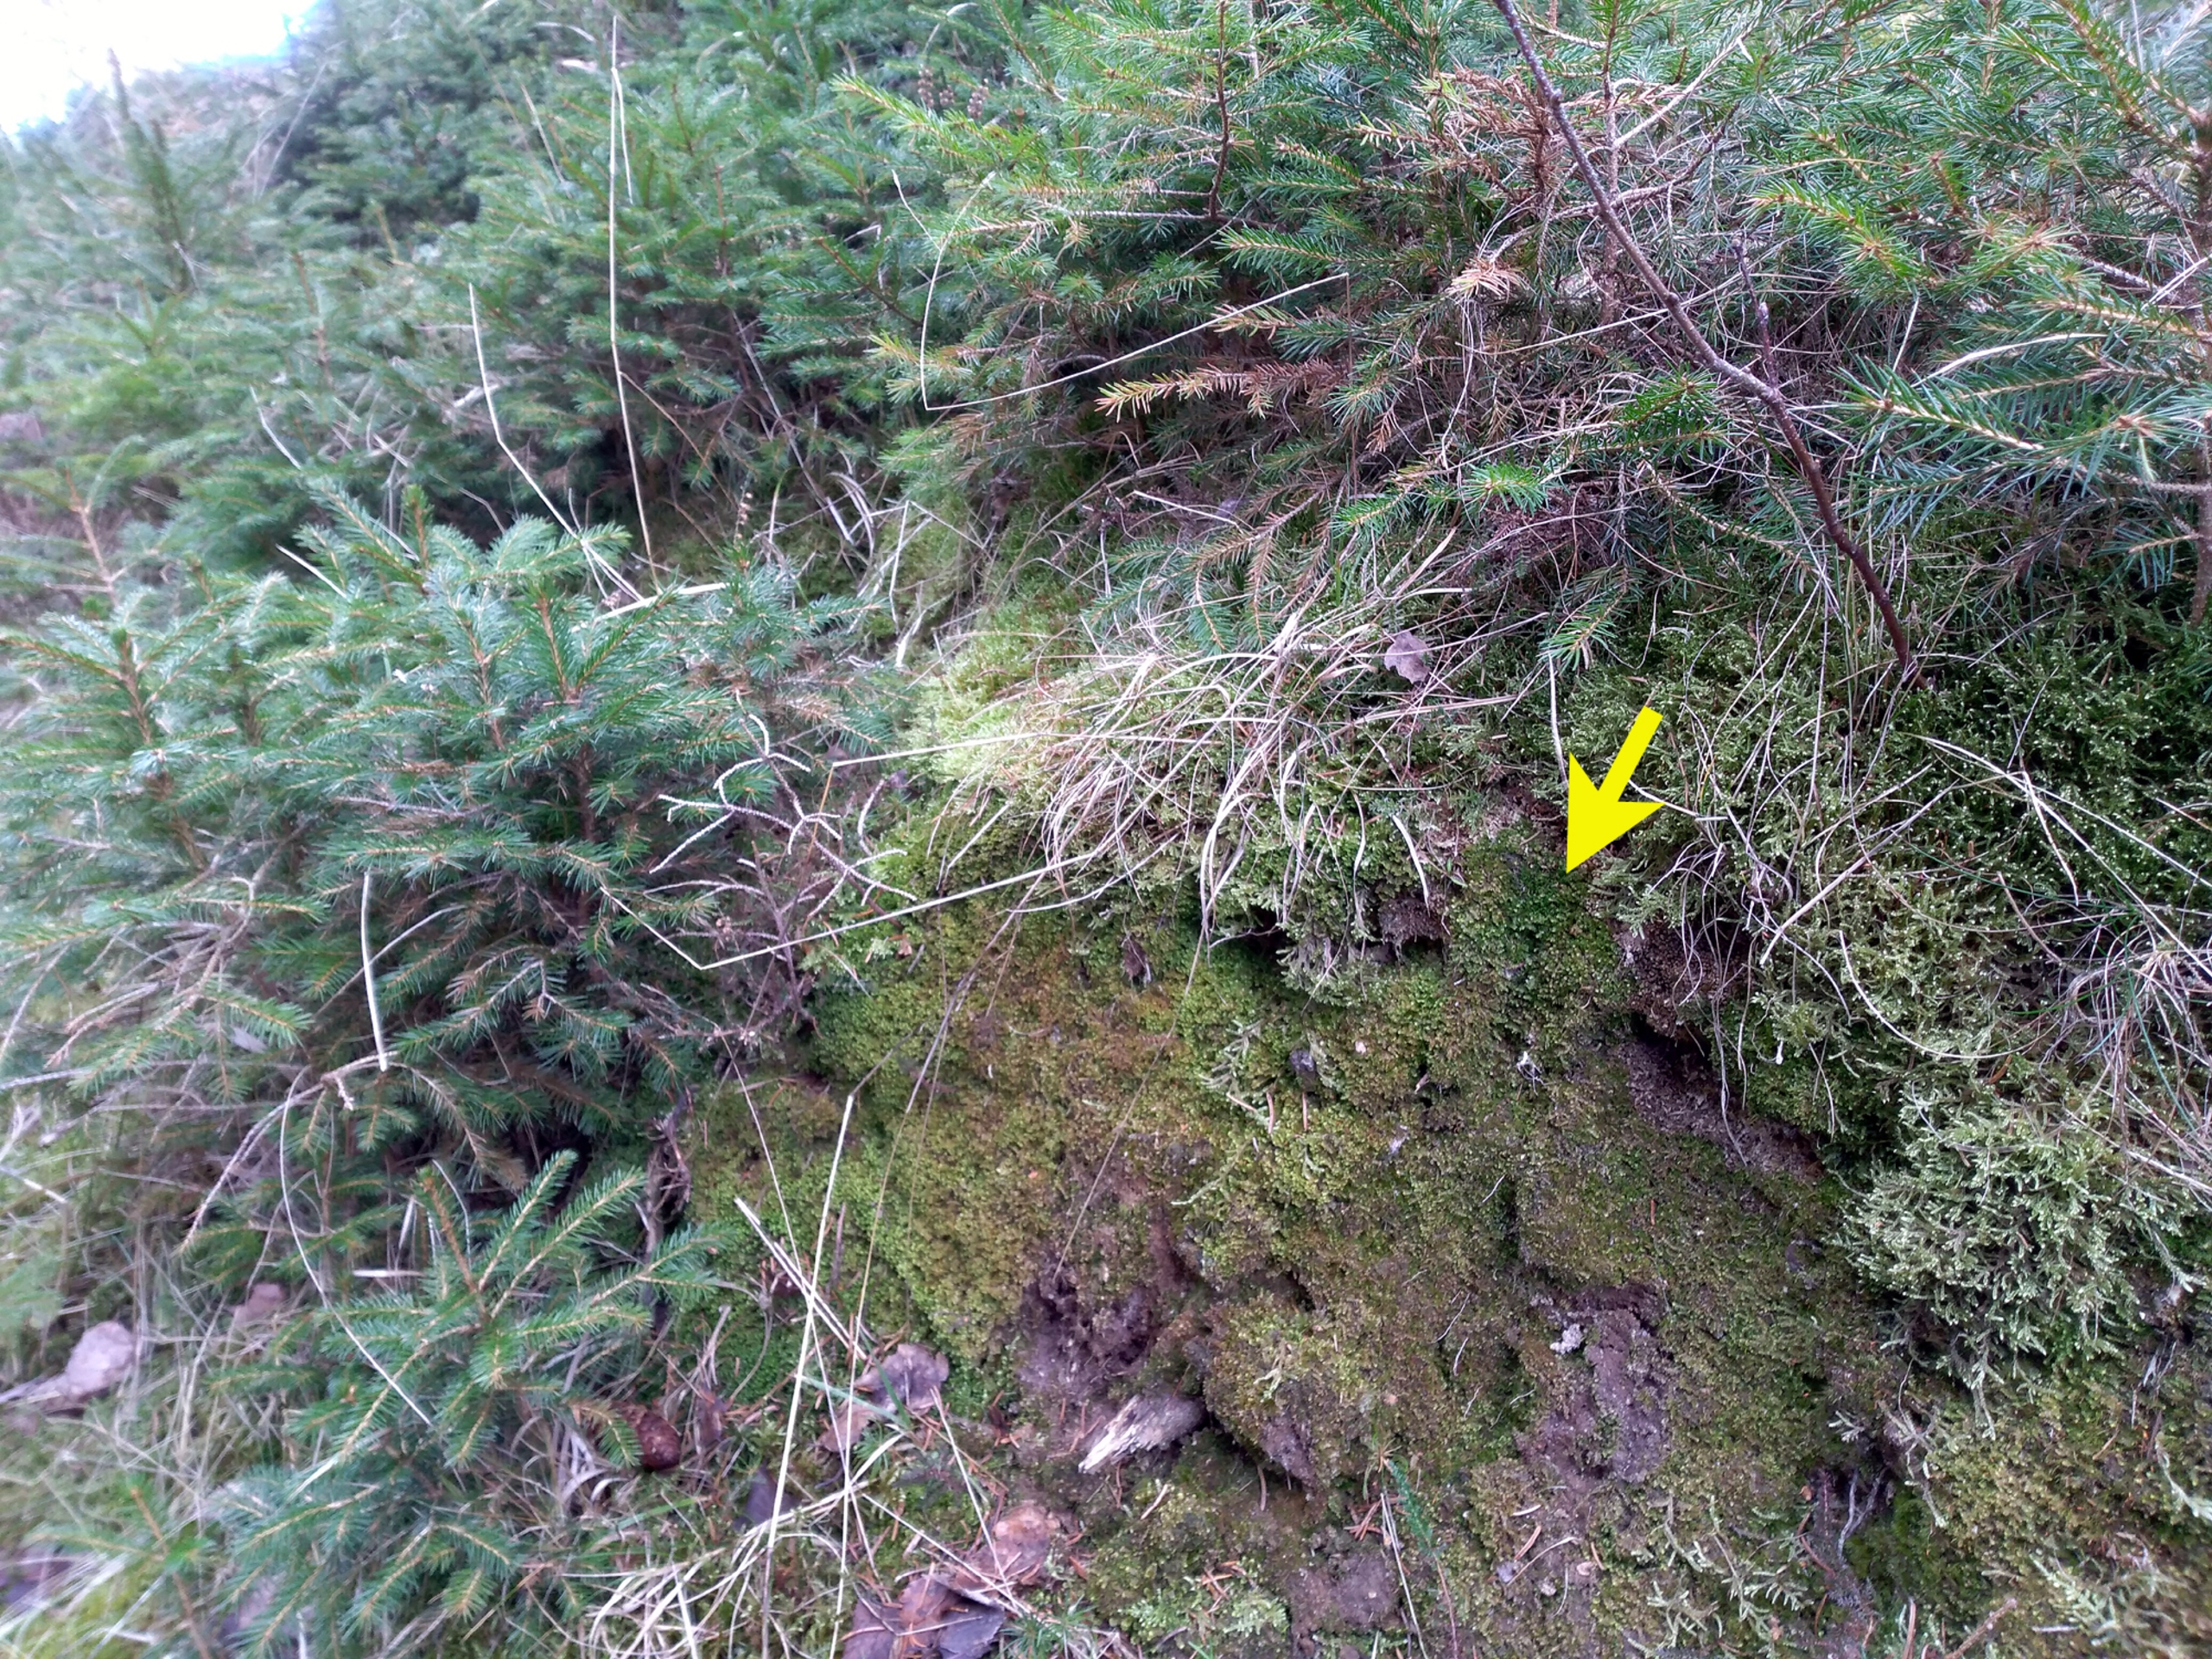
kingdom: Plantae
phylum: Marchantiophyta
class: Jungermanniopsida
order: Jungermanniales
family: Gymnomitriaceae
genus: Nardia
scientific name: Nardia scalaris
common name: Tæt kappesvøb
